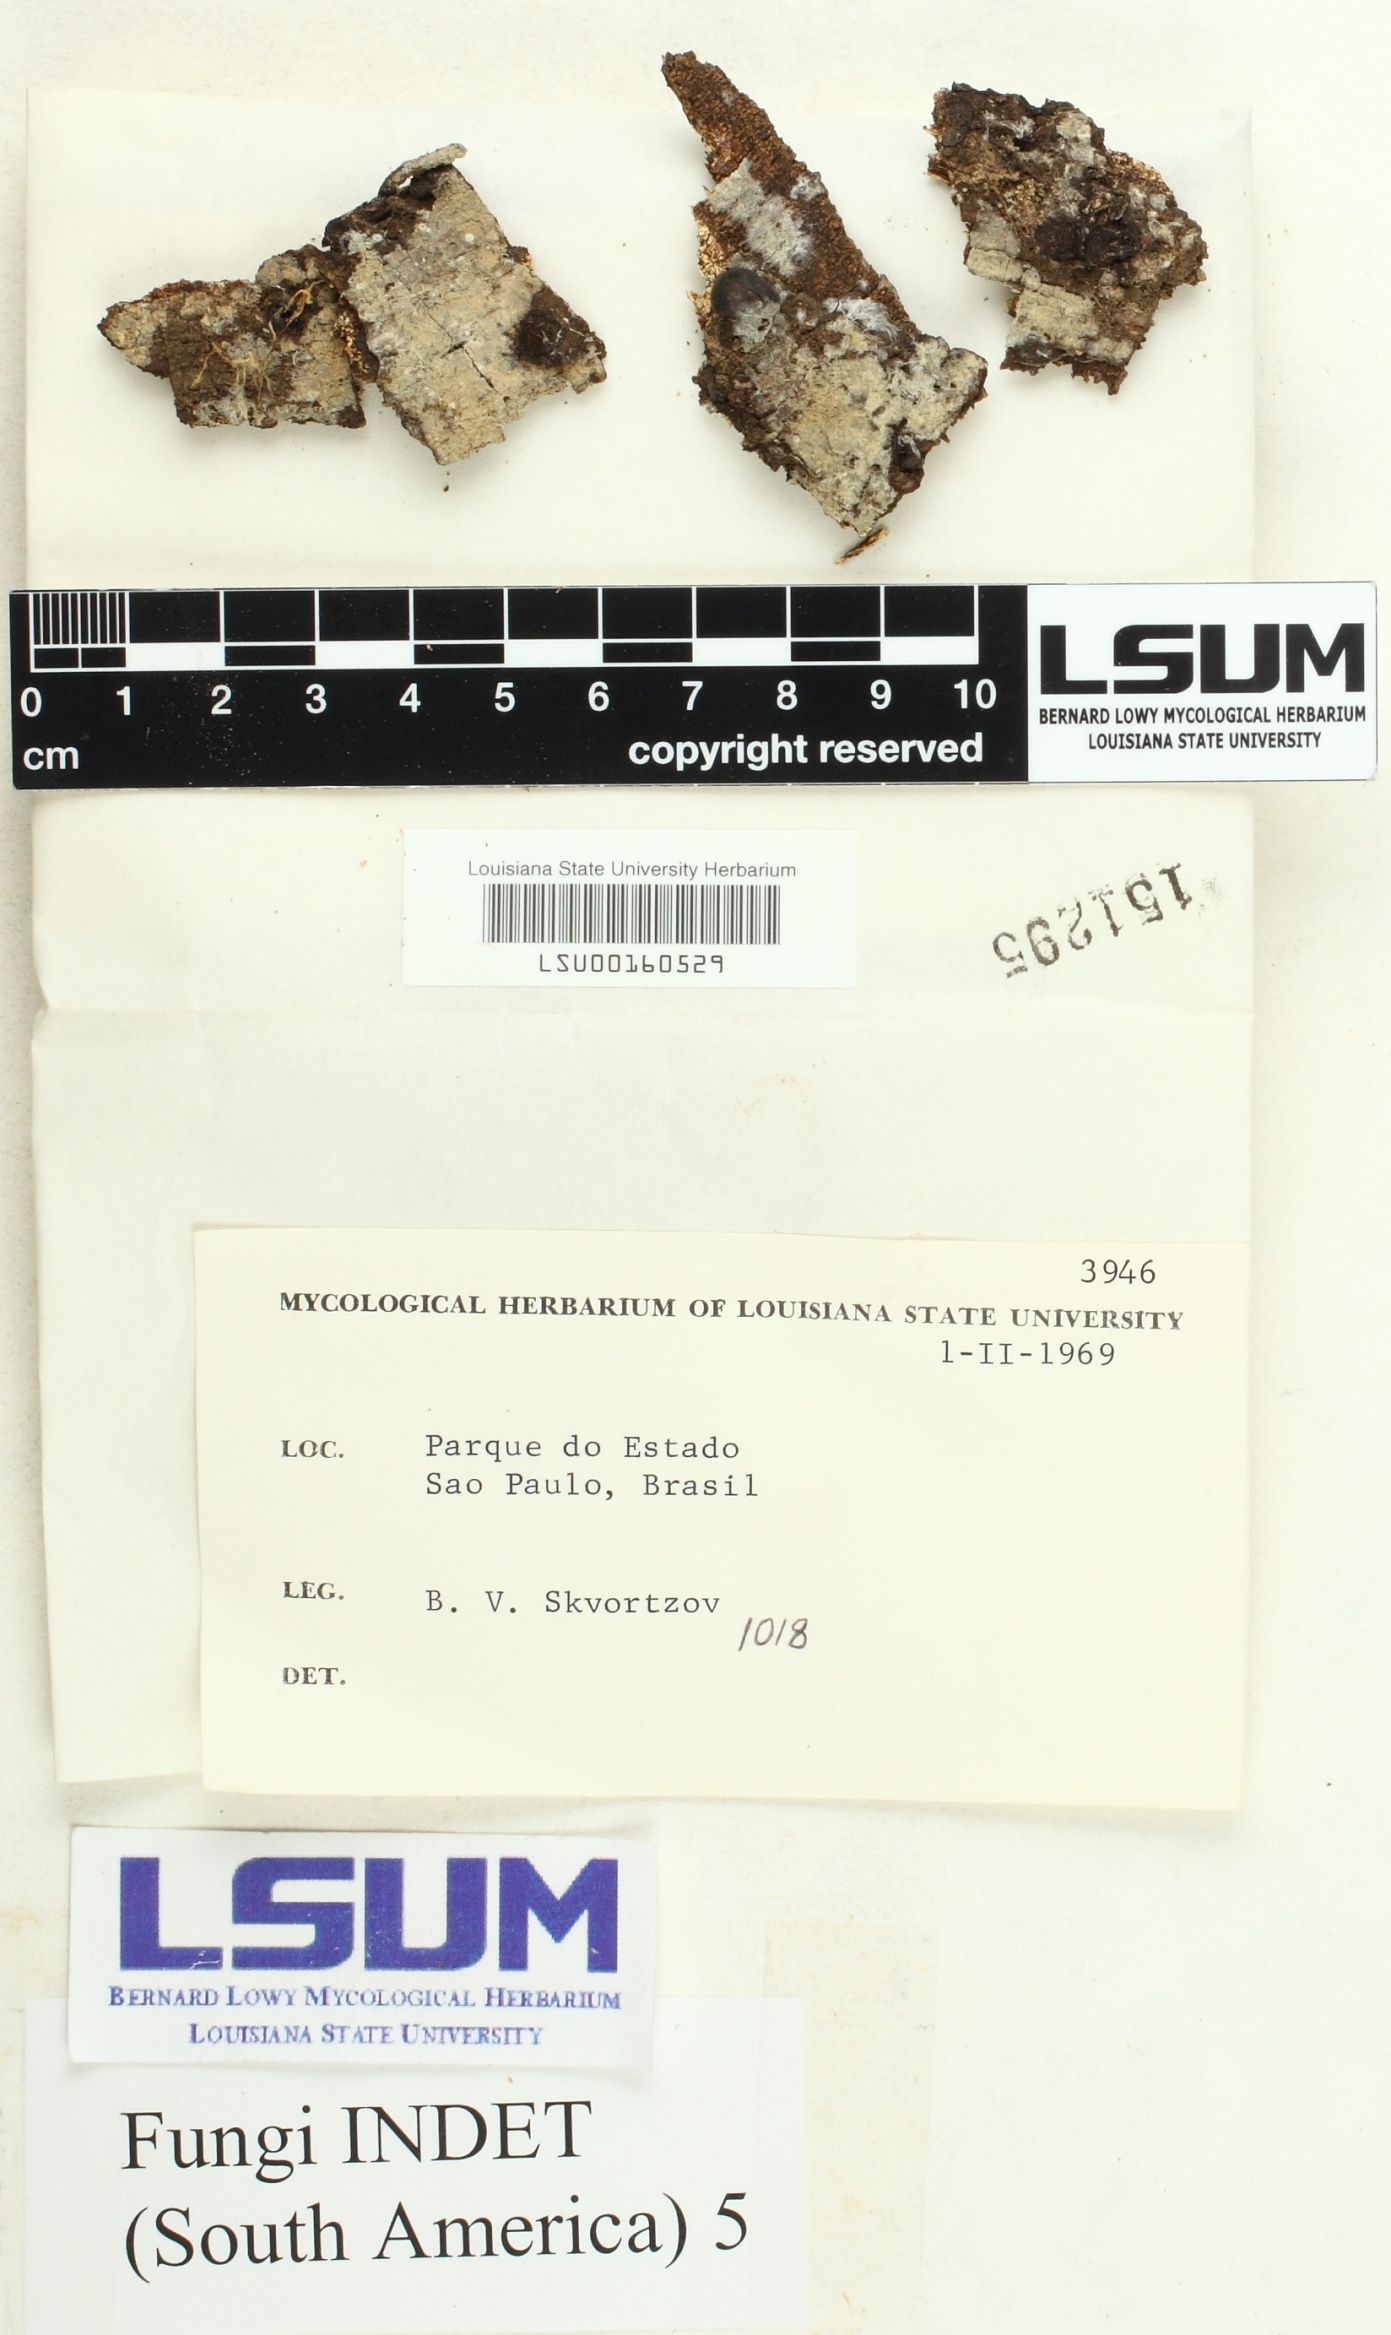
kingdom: Fungi
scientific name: Fungi
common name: Fungi
